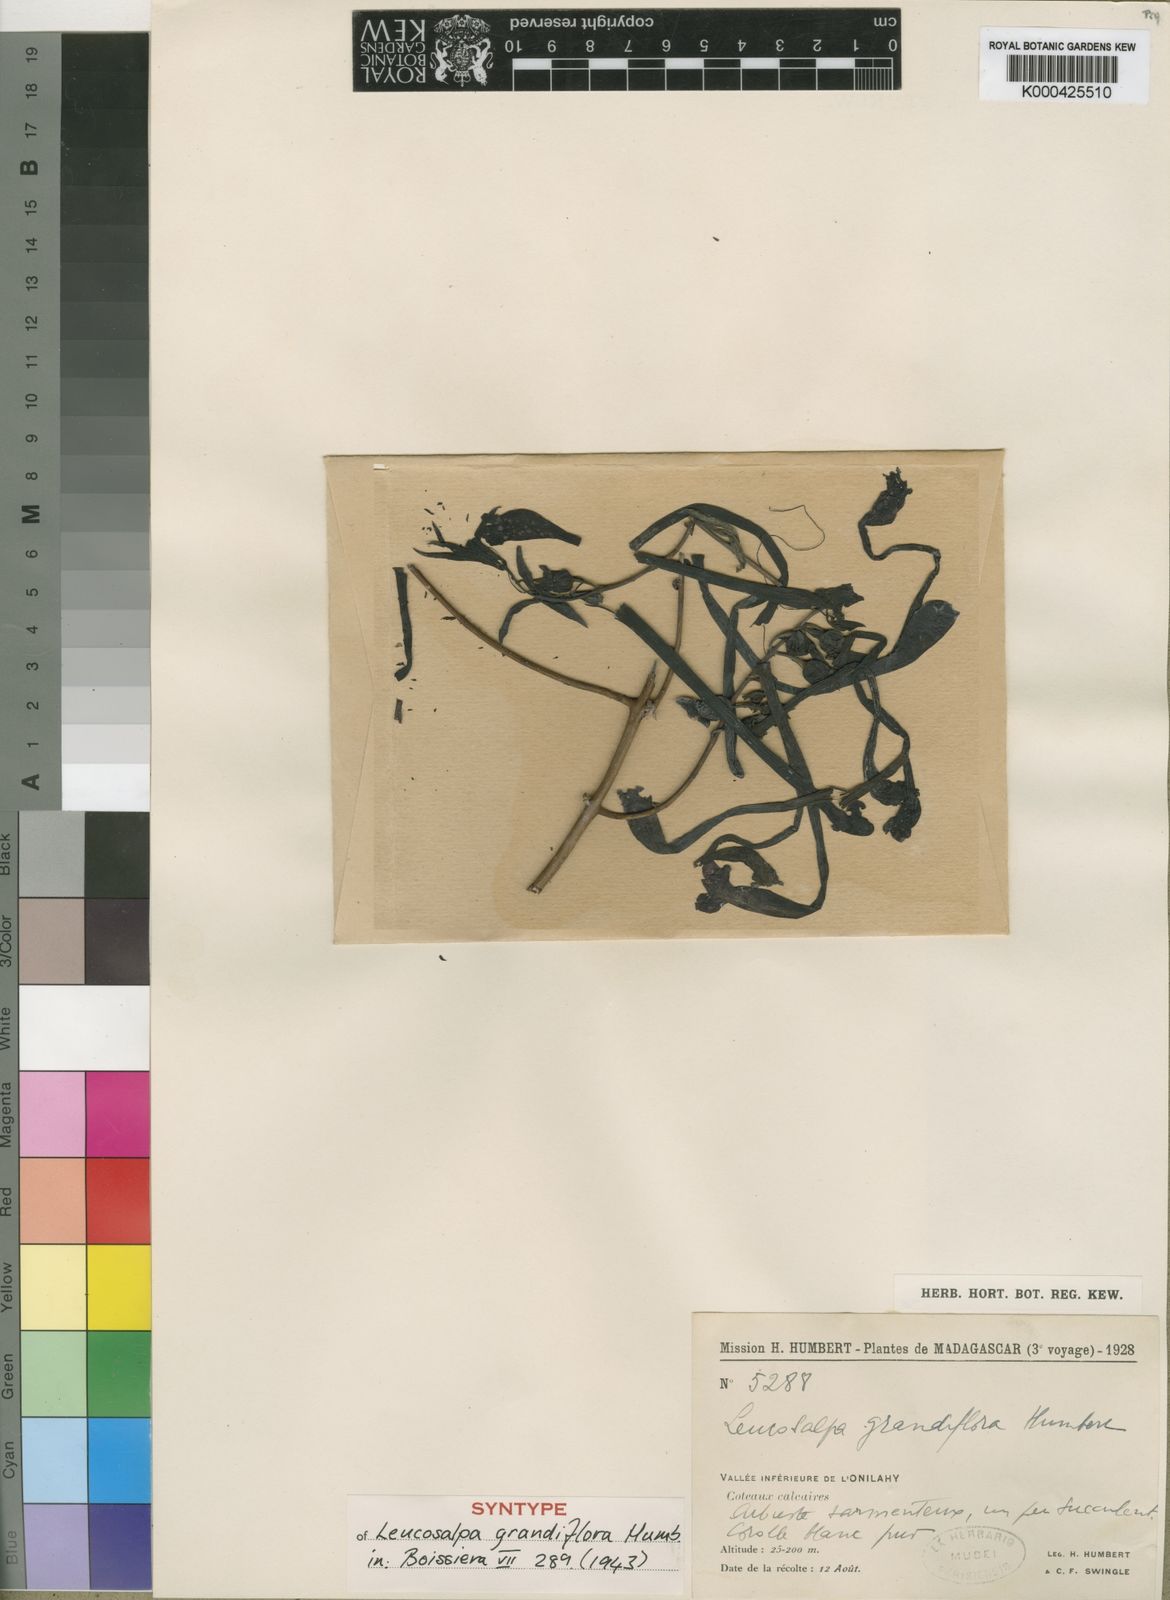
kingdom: Plantae
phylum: Tracheophyta
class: Magnoliopsida
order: Lamiales
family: Orobanchaceae
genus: Leucosalpa
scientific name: Leucosalpa grandiflora
